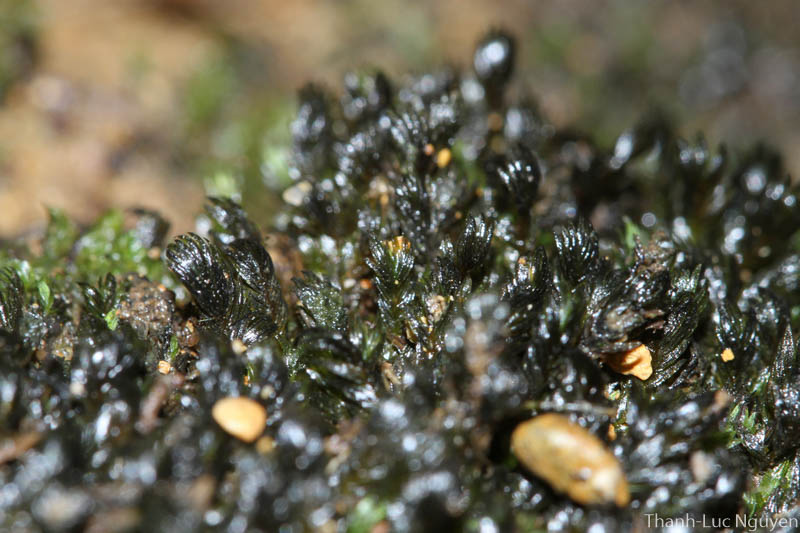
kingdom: Plantae
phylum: Bryophyta
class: Bryopsida
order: Dicranales
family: Fissidentaceae
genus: Fissidens
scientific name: Fissidens
